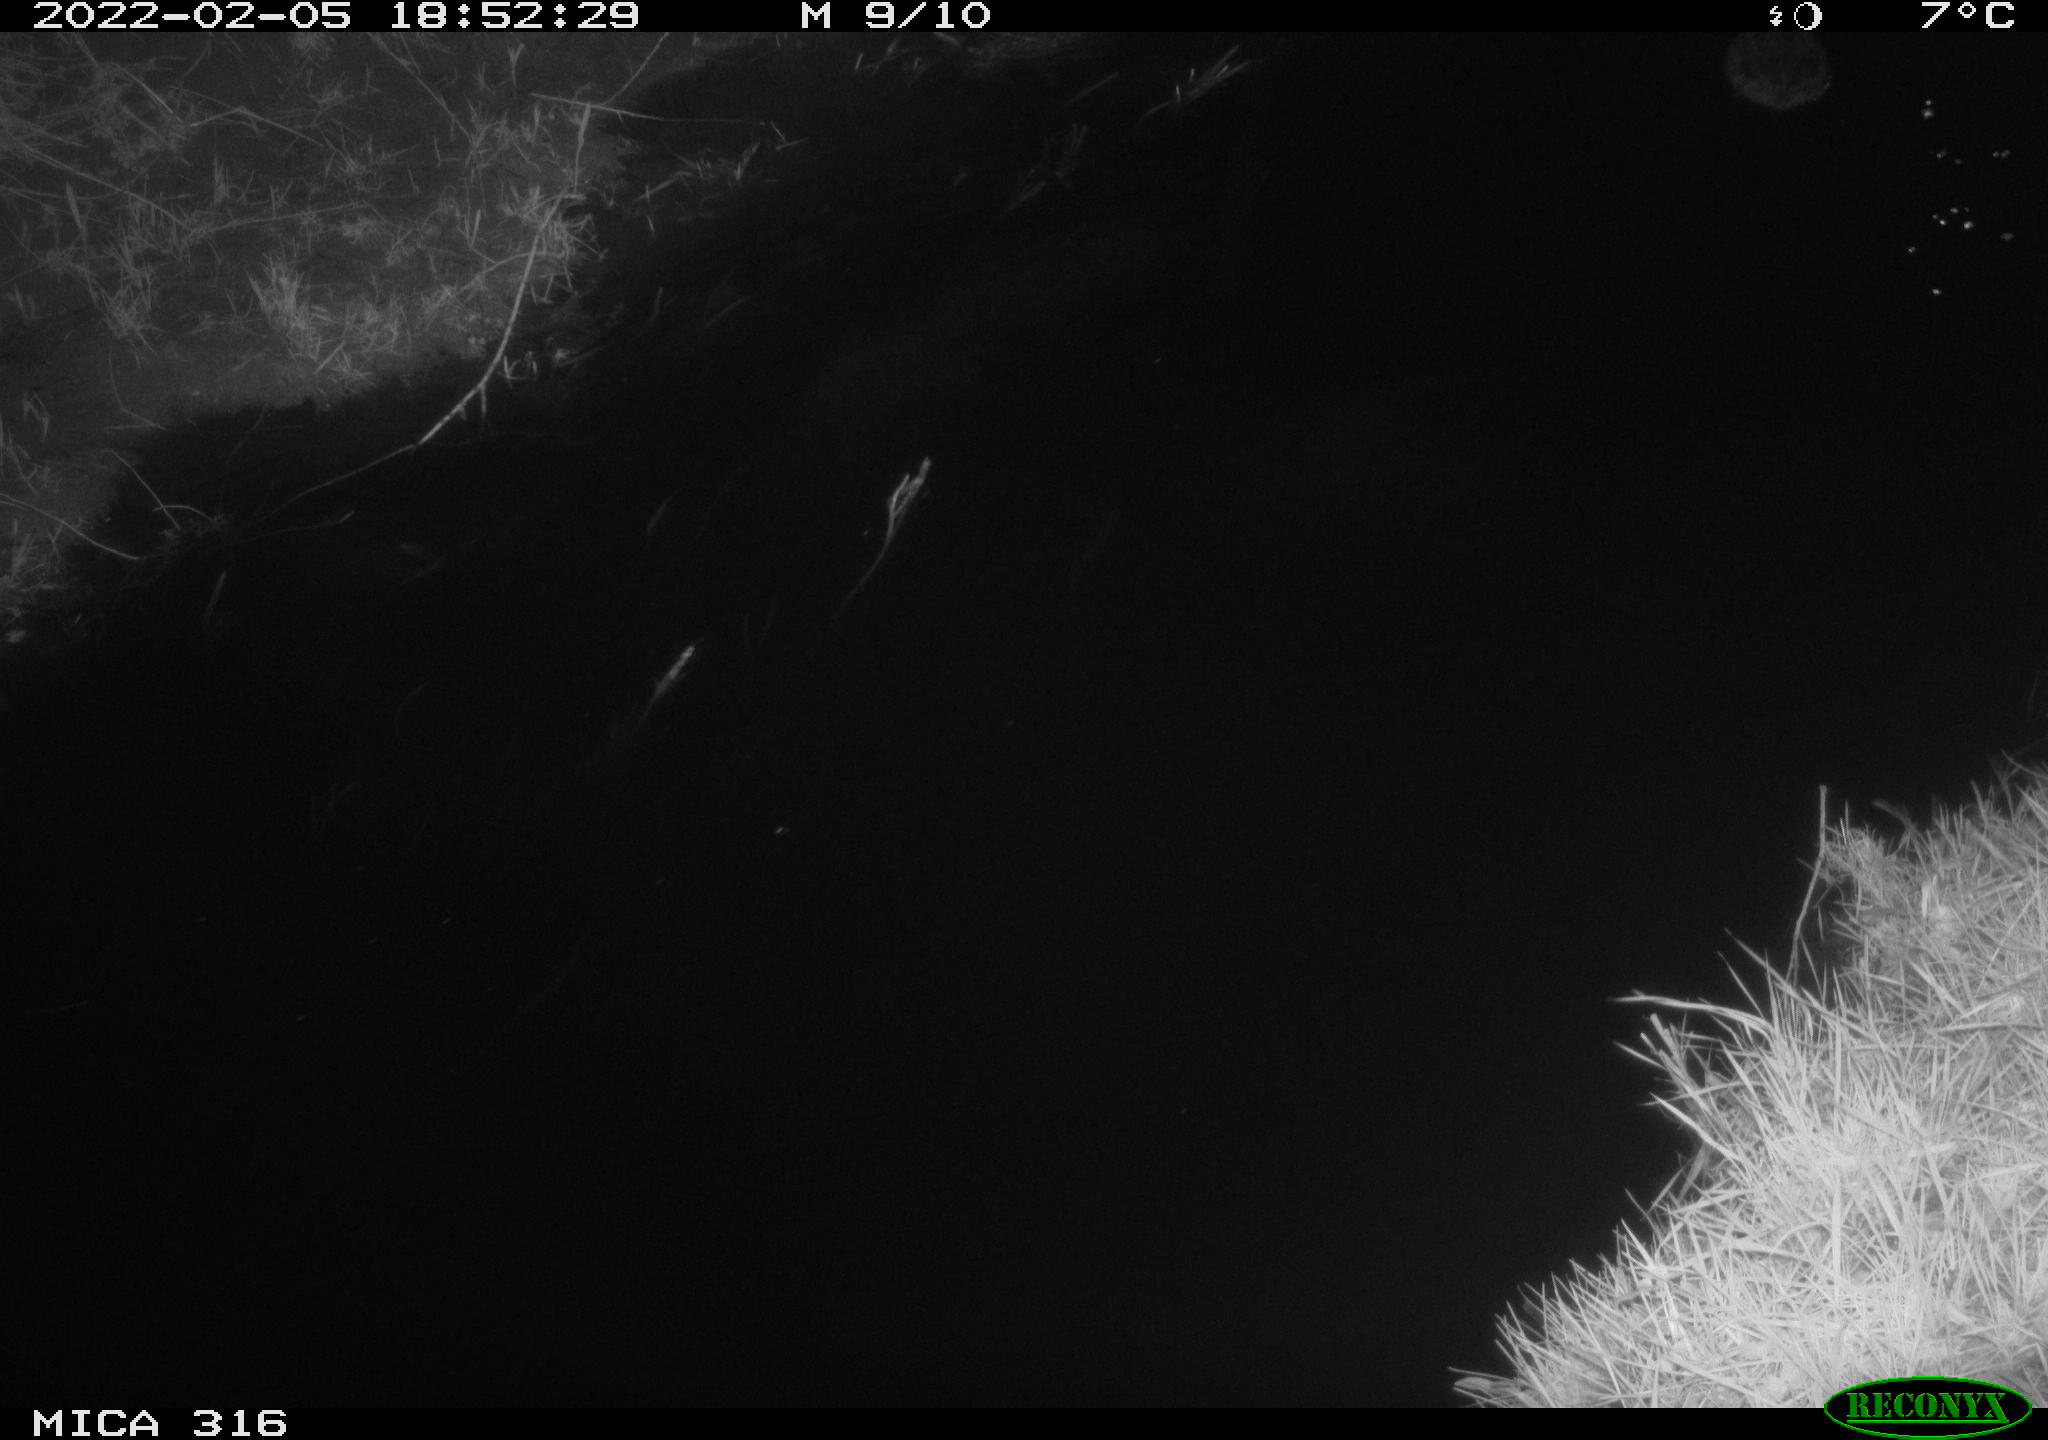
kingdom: Animalia
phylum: Chordata
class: Aves
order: Anseriformes
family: Anatidae
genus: Anas
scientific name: Anas platyrhynchos
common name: Mallard
